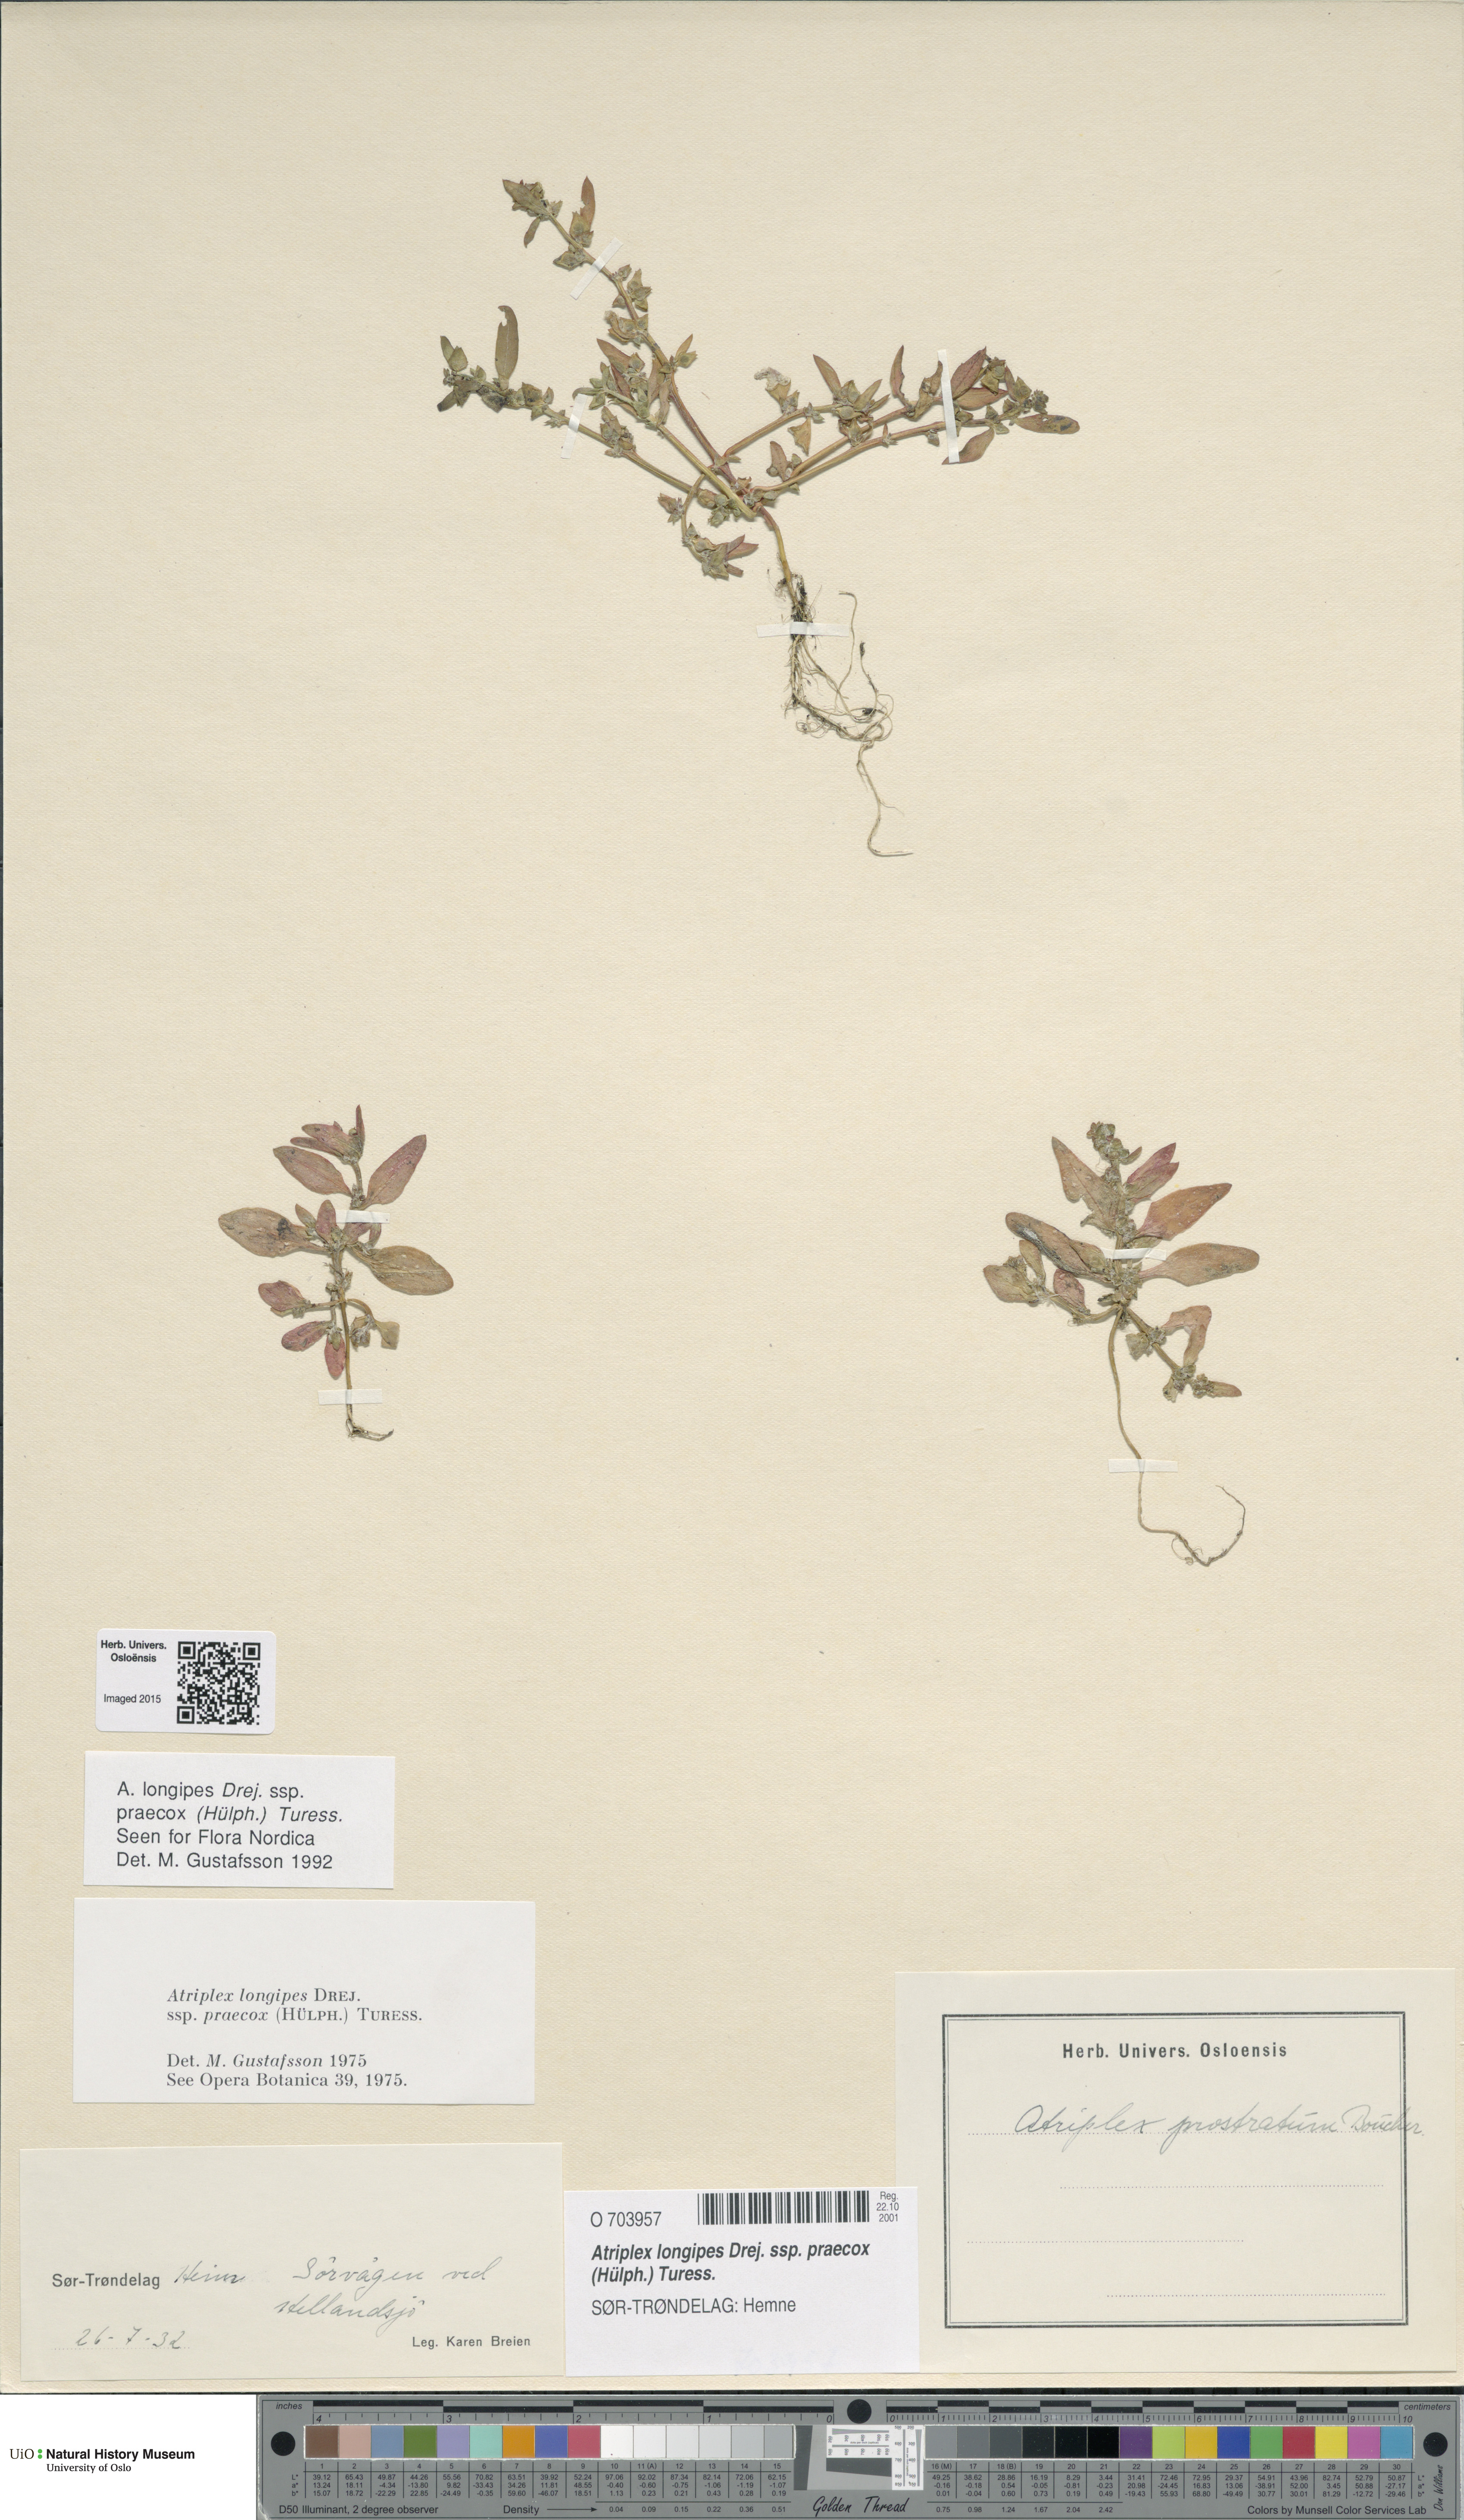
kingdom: Plantae
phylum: Tracheophyta
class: Magnoliopsida
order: Caryophyllales
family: Amaranthaceae
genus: Atriplex
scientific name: Atriplex praecox
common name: Early orache
